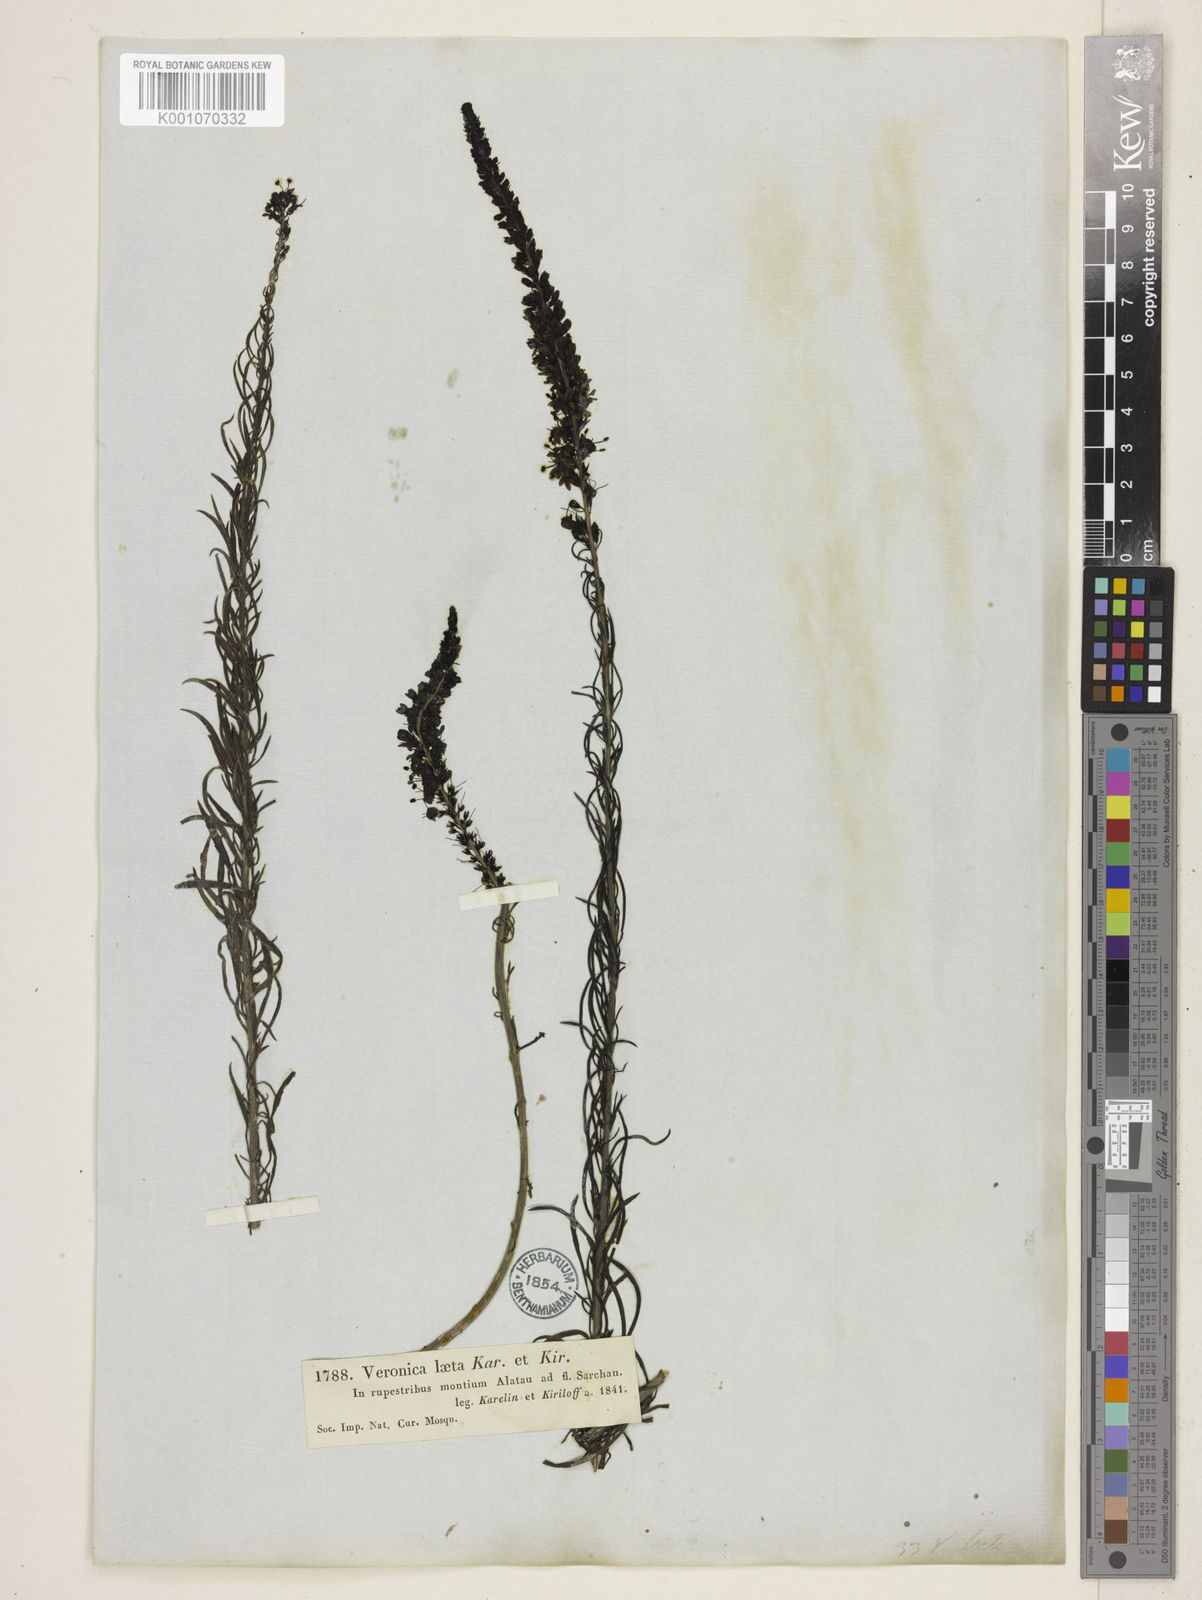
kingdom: Plantae
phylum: Tracheophyta
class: Magnoliopsida
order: Lamiales
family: Plantaginaceae
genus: Veronica
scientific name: Veronica laeta
